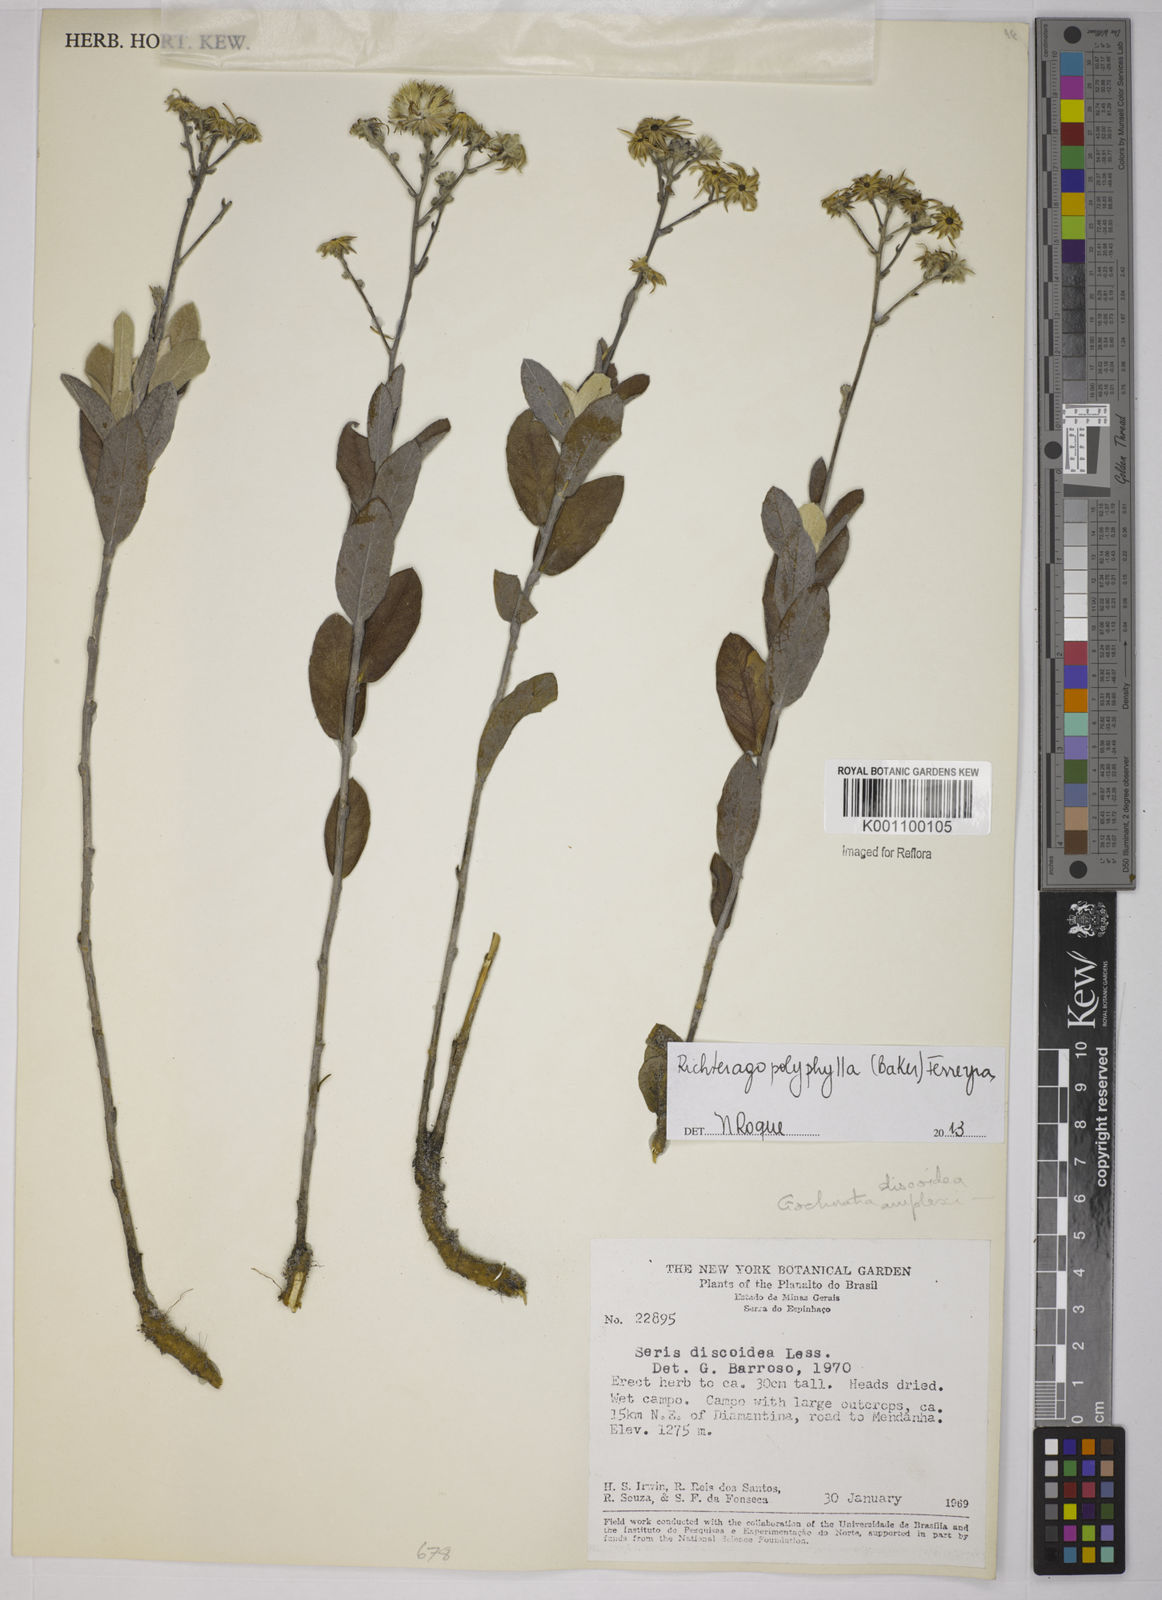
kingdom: Plantae
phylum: Tracheophyta
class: Magnoliopsida
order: Asterales
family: Asteraceae
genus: Richterago
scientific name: Richterago polyphylla
